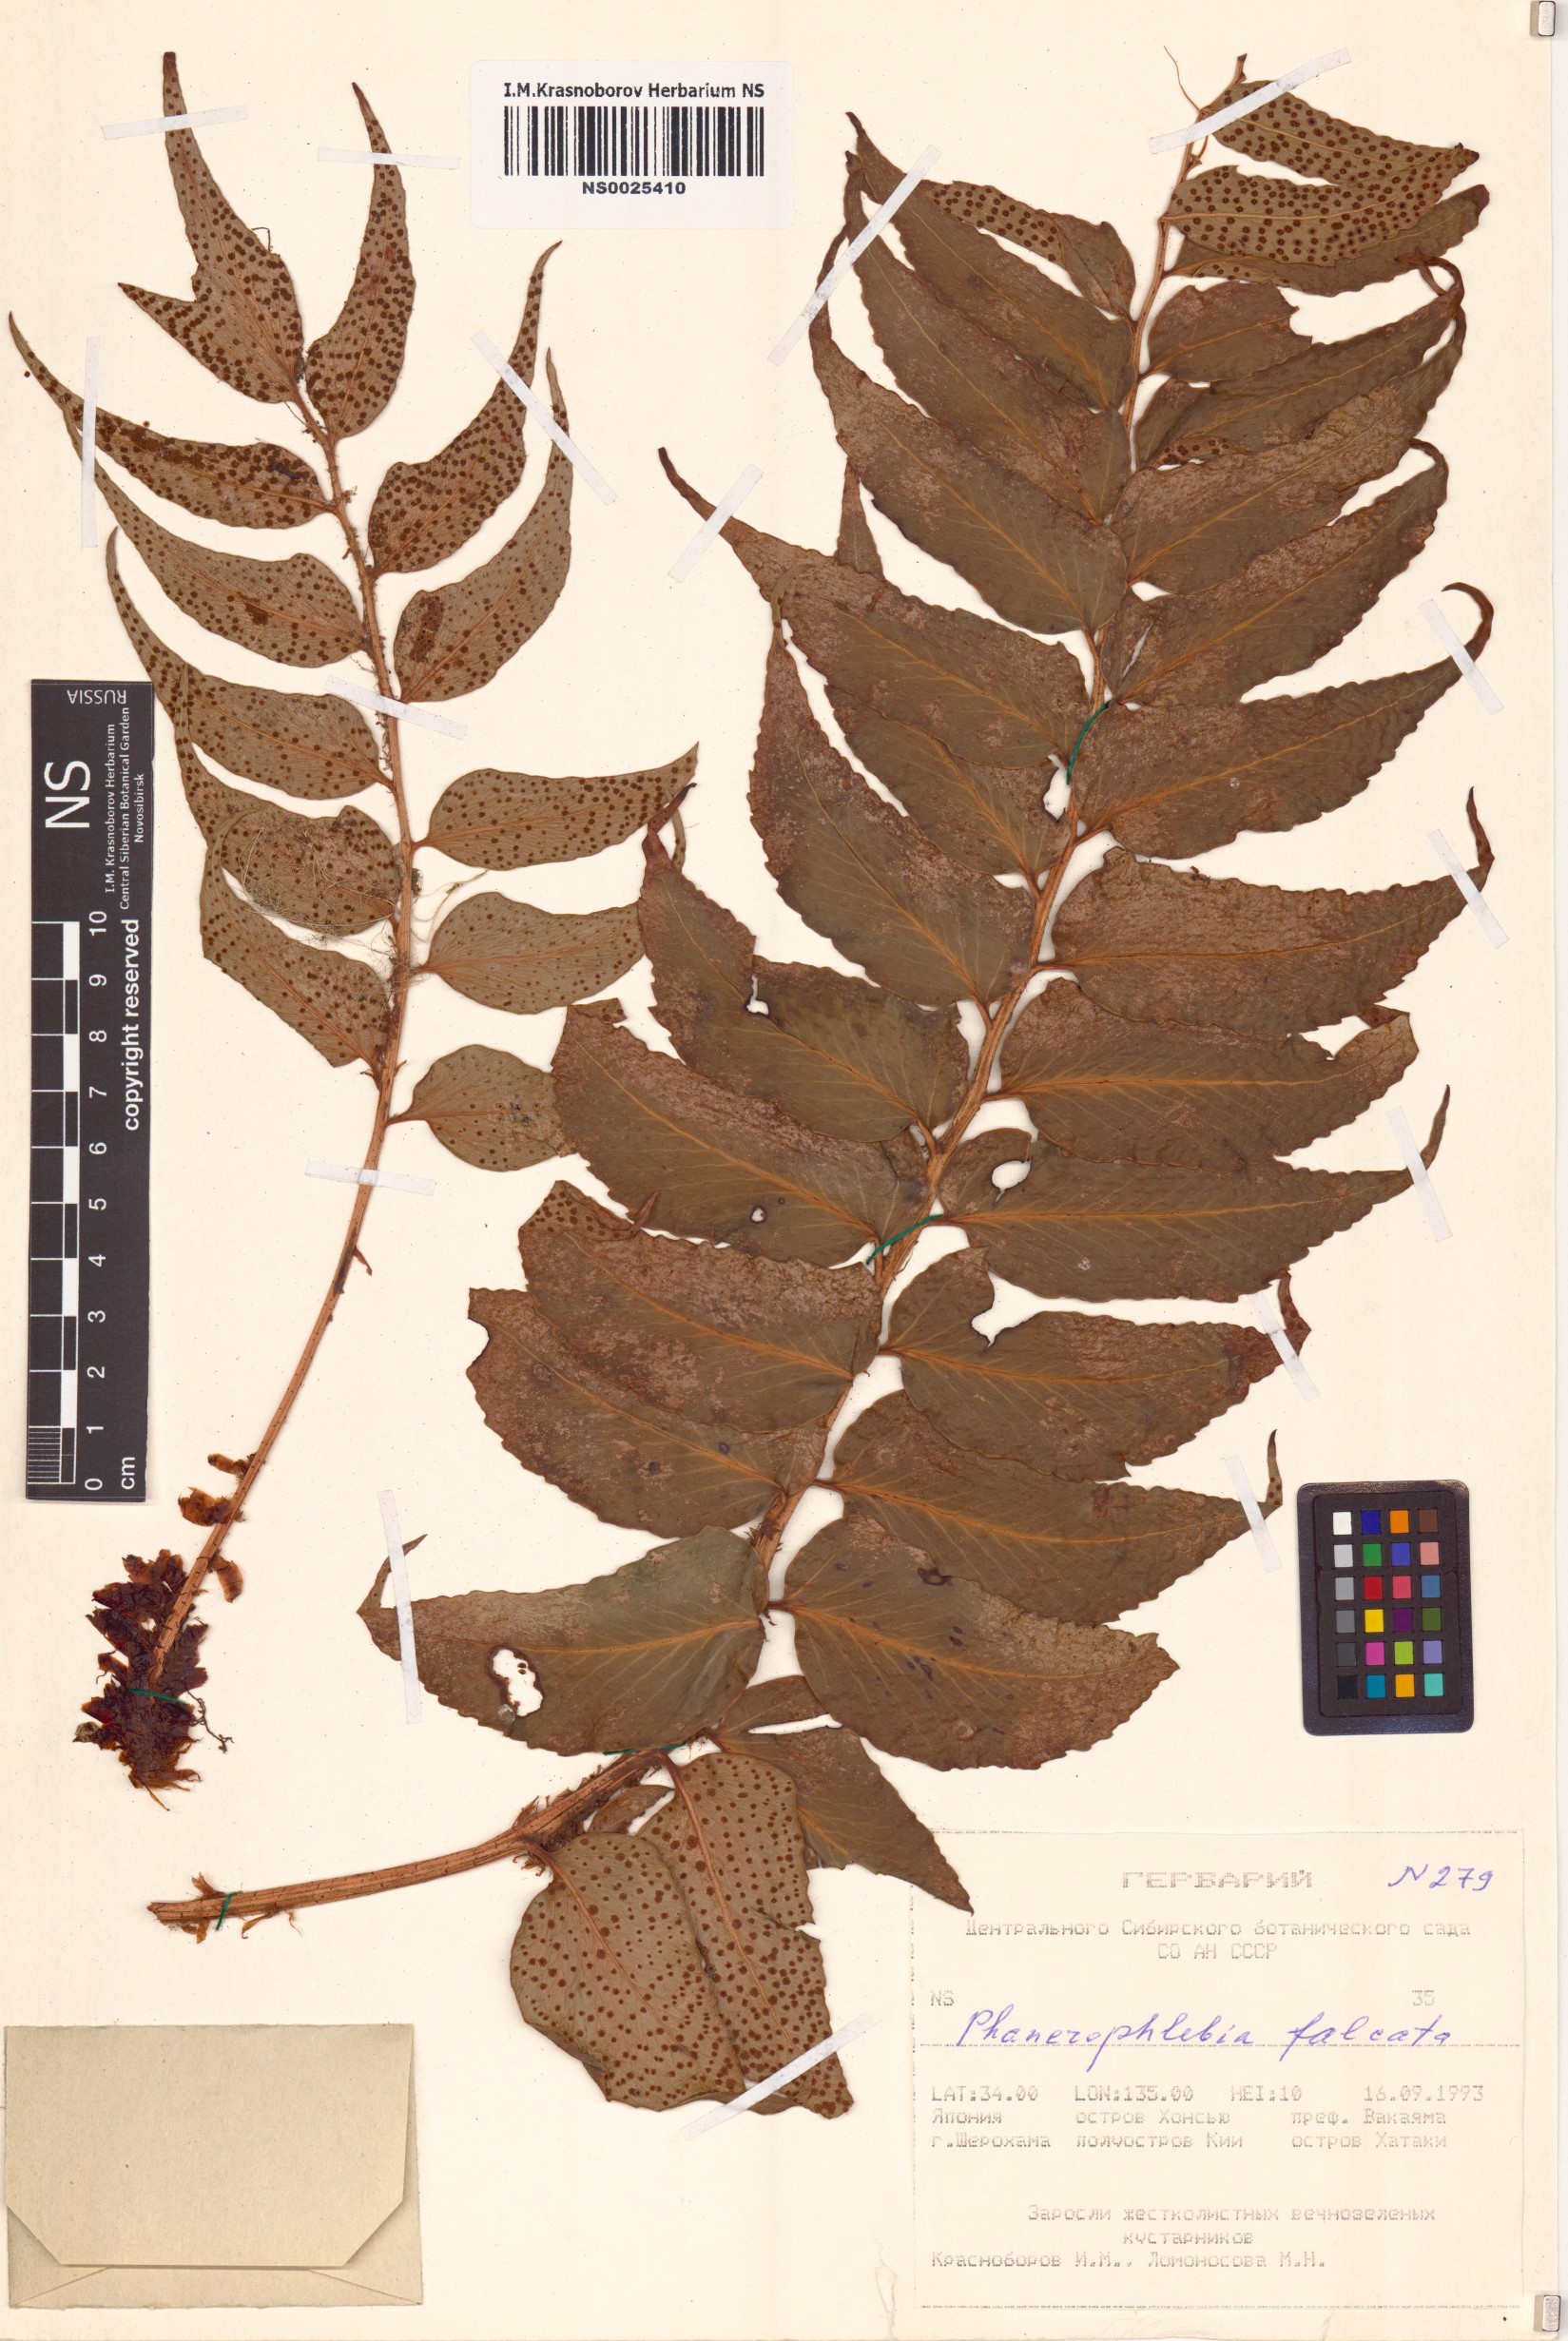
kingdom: Plantae
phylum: Tracheophyta
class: Polypodiopsida
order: Polypodiales
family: Dryopteridaceae
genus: Cyrtomium
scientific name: Cyrtomium falcatum
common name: House holly-fern
